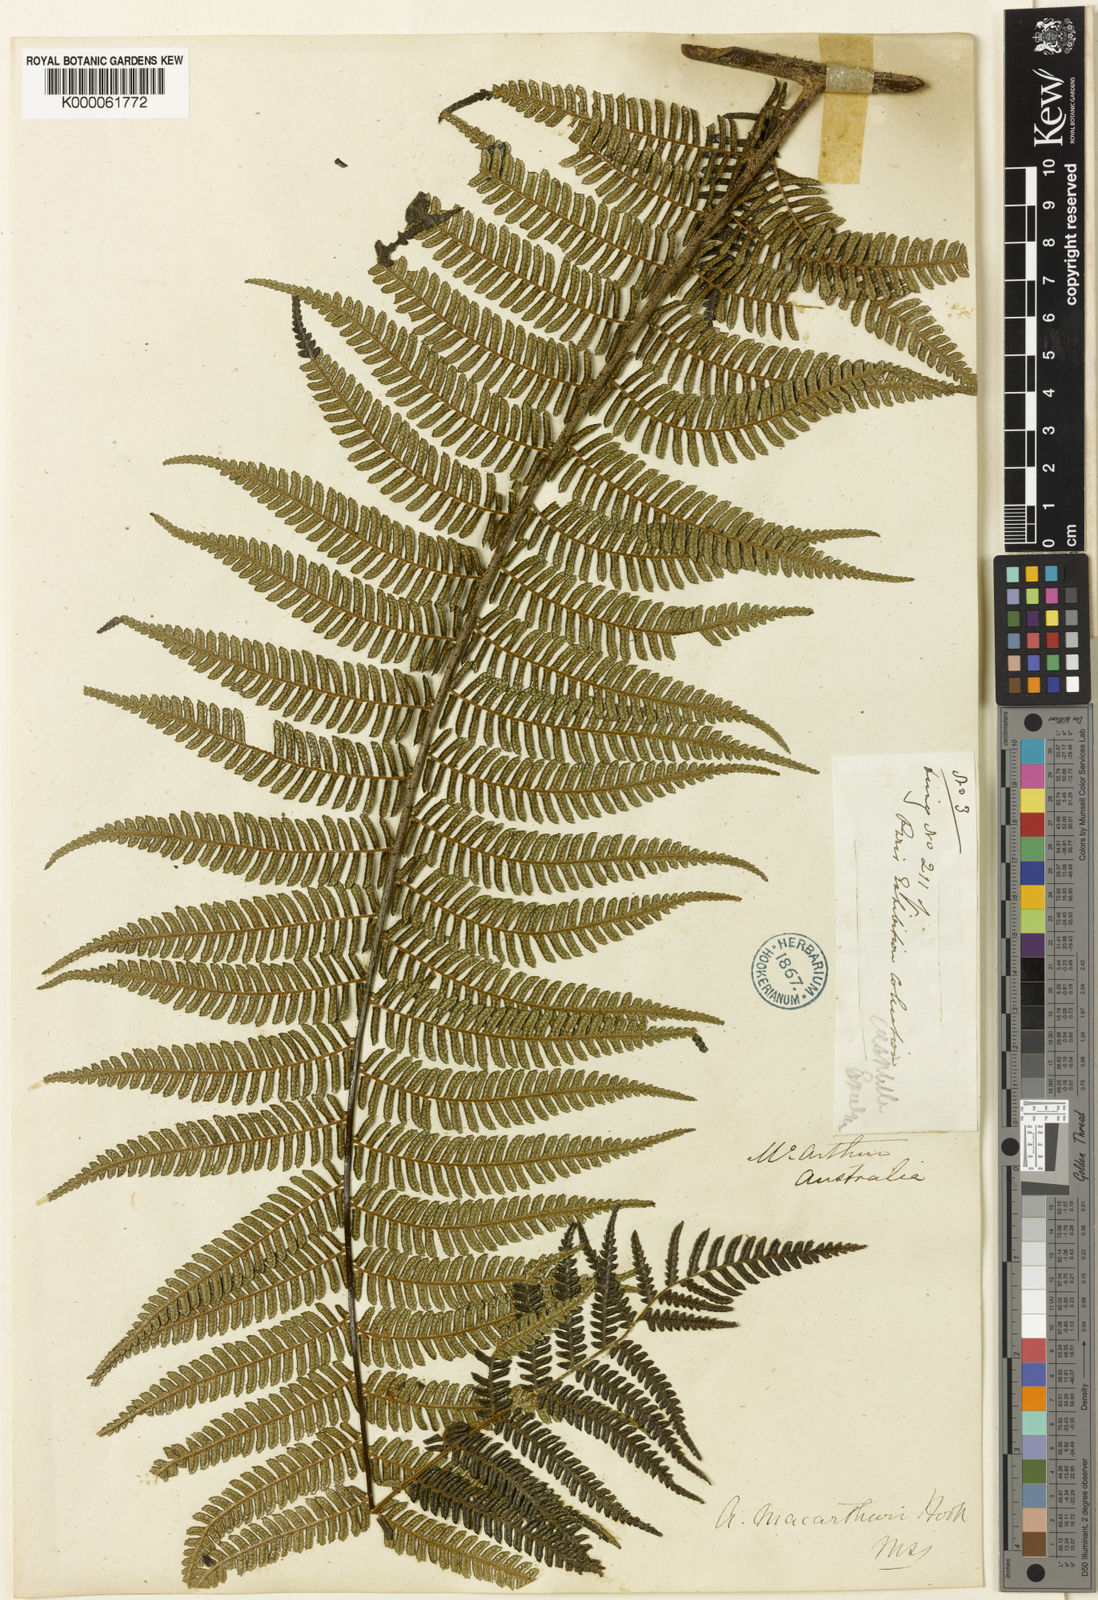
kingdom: Plantae
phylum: Tracheophyta
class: Polypodiopsida
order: Cyatheales
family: Cyatheaceae
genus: Alsophila
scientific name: Alsophila leichhardtiana
